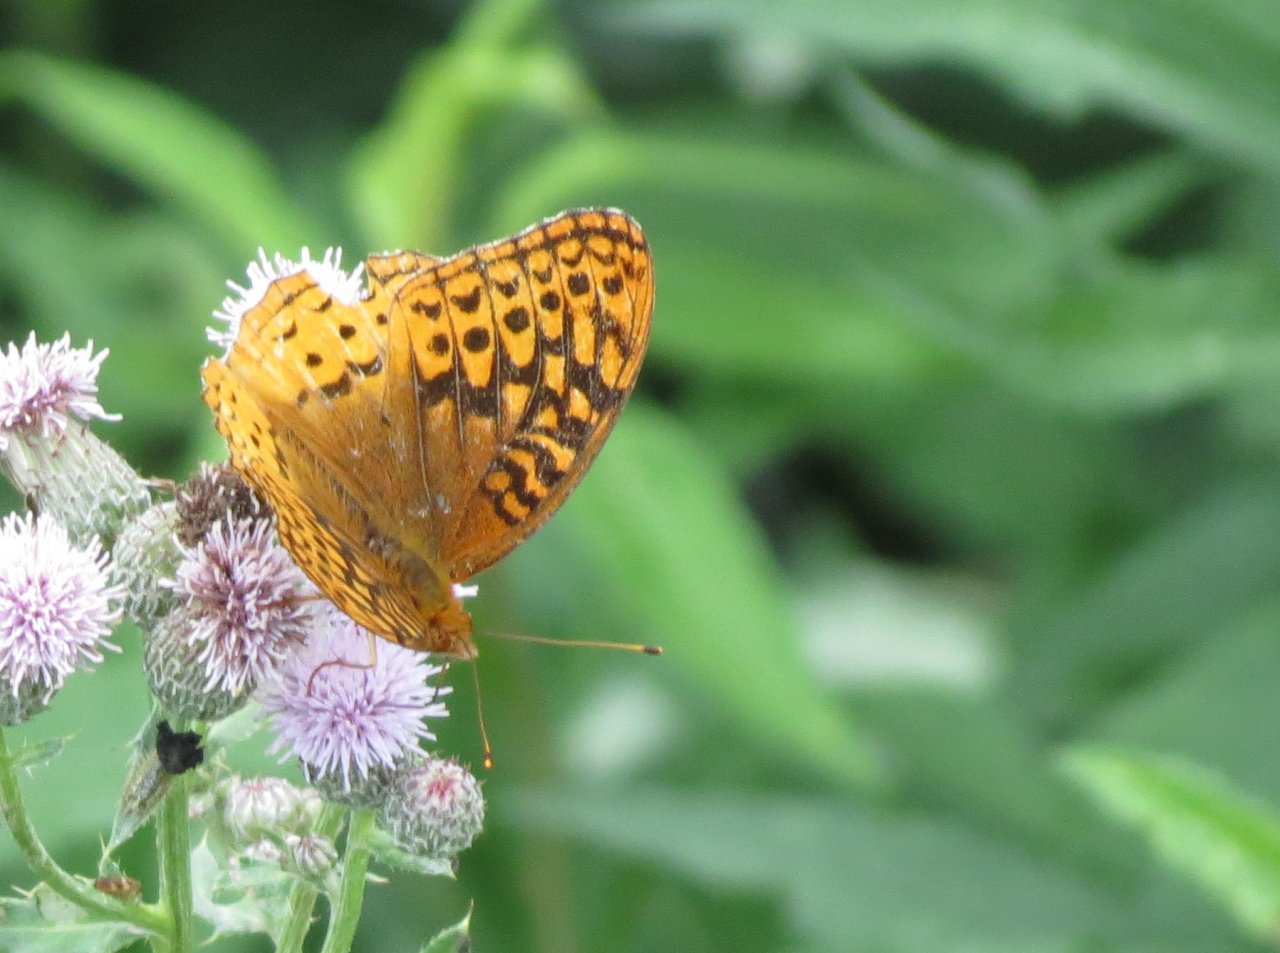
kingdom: Animalia
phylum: Arthropoda
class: Insecta
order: Lepidoptera
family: Nymphalidae
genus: Speyeria
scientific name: Speyeria cybele
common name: Great Spangled Fritillary
